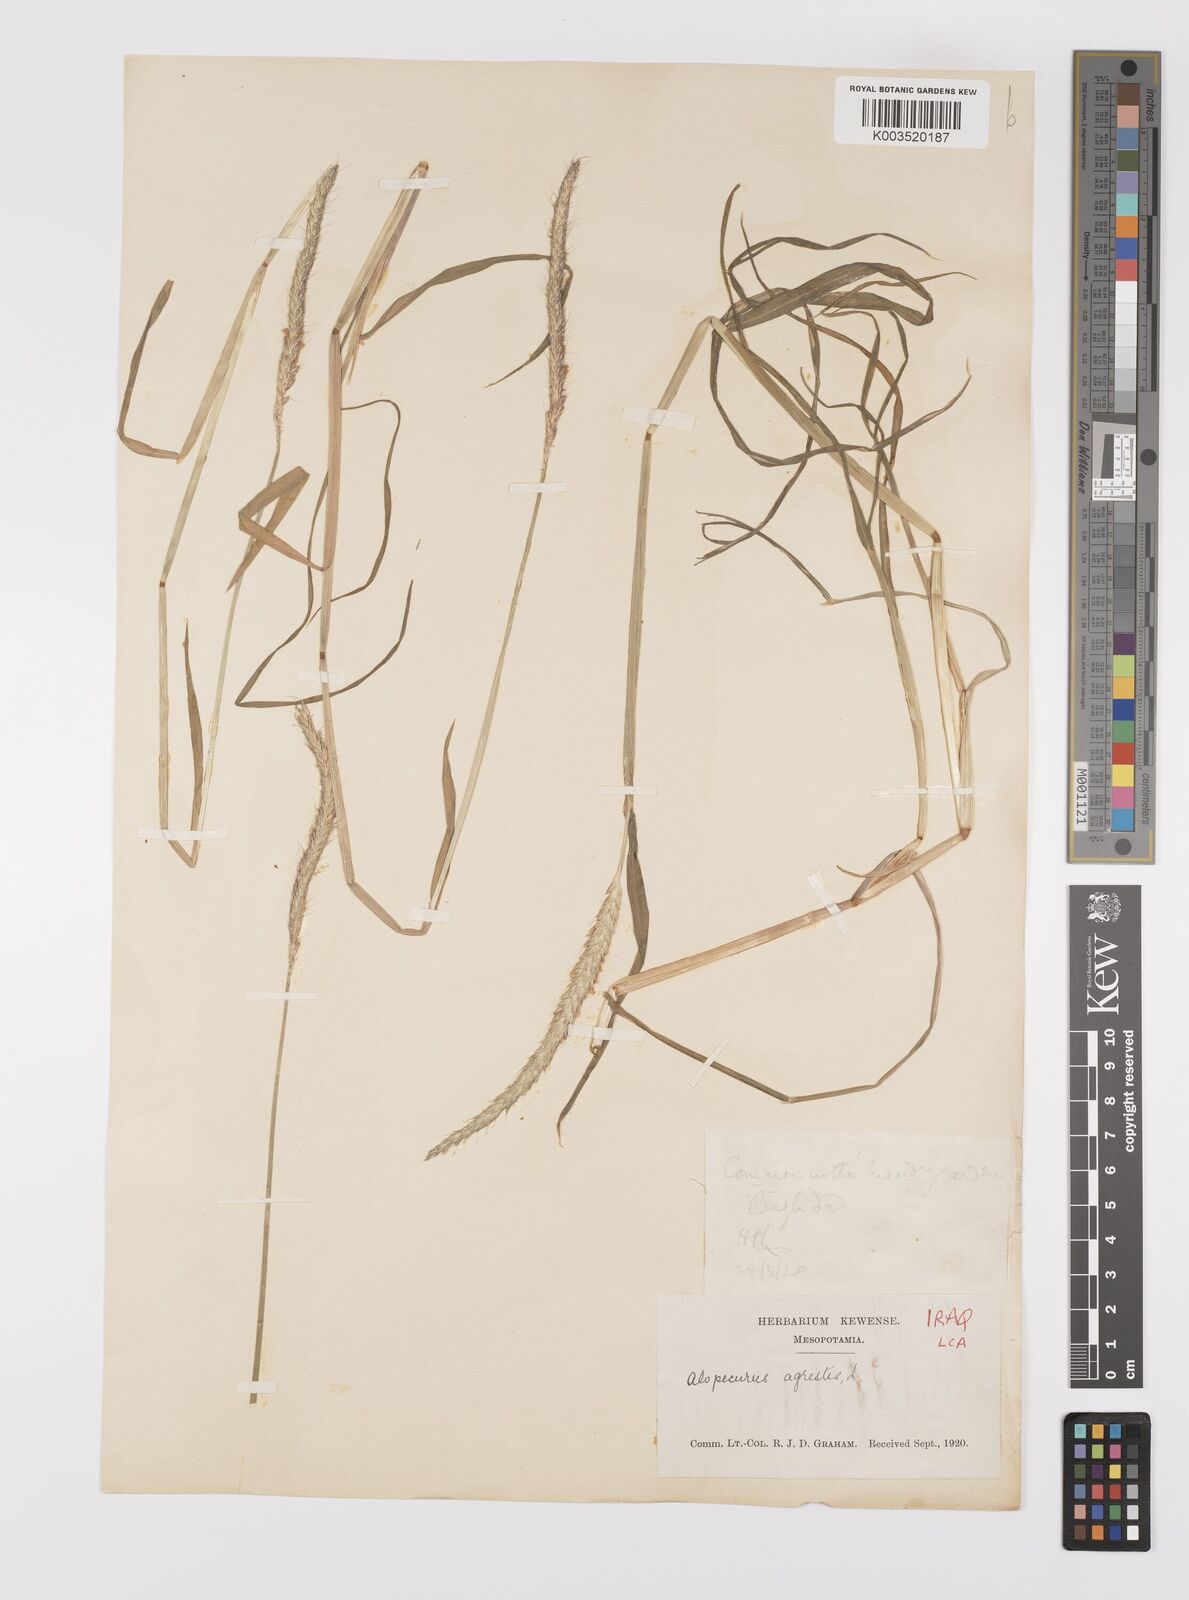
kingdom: Plantae
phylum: Tracheophyta
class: Liliopsida
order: Poales
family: Poaceae
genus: Alopecurus
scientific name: Alopecurus myosuroides
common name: Black-grass
